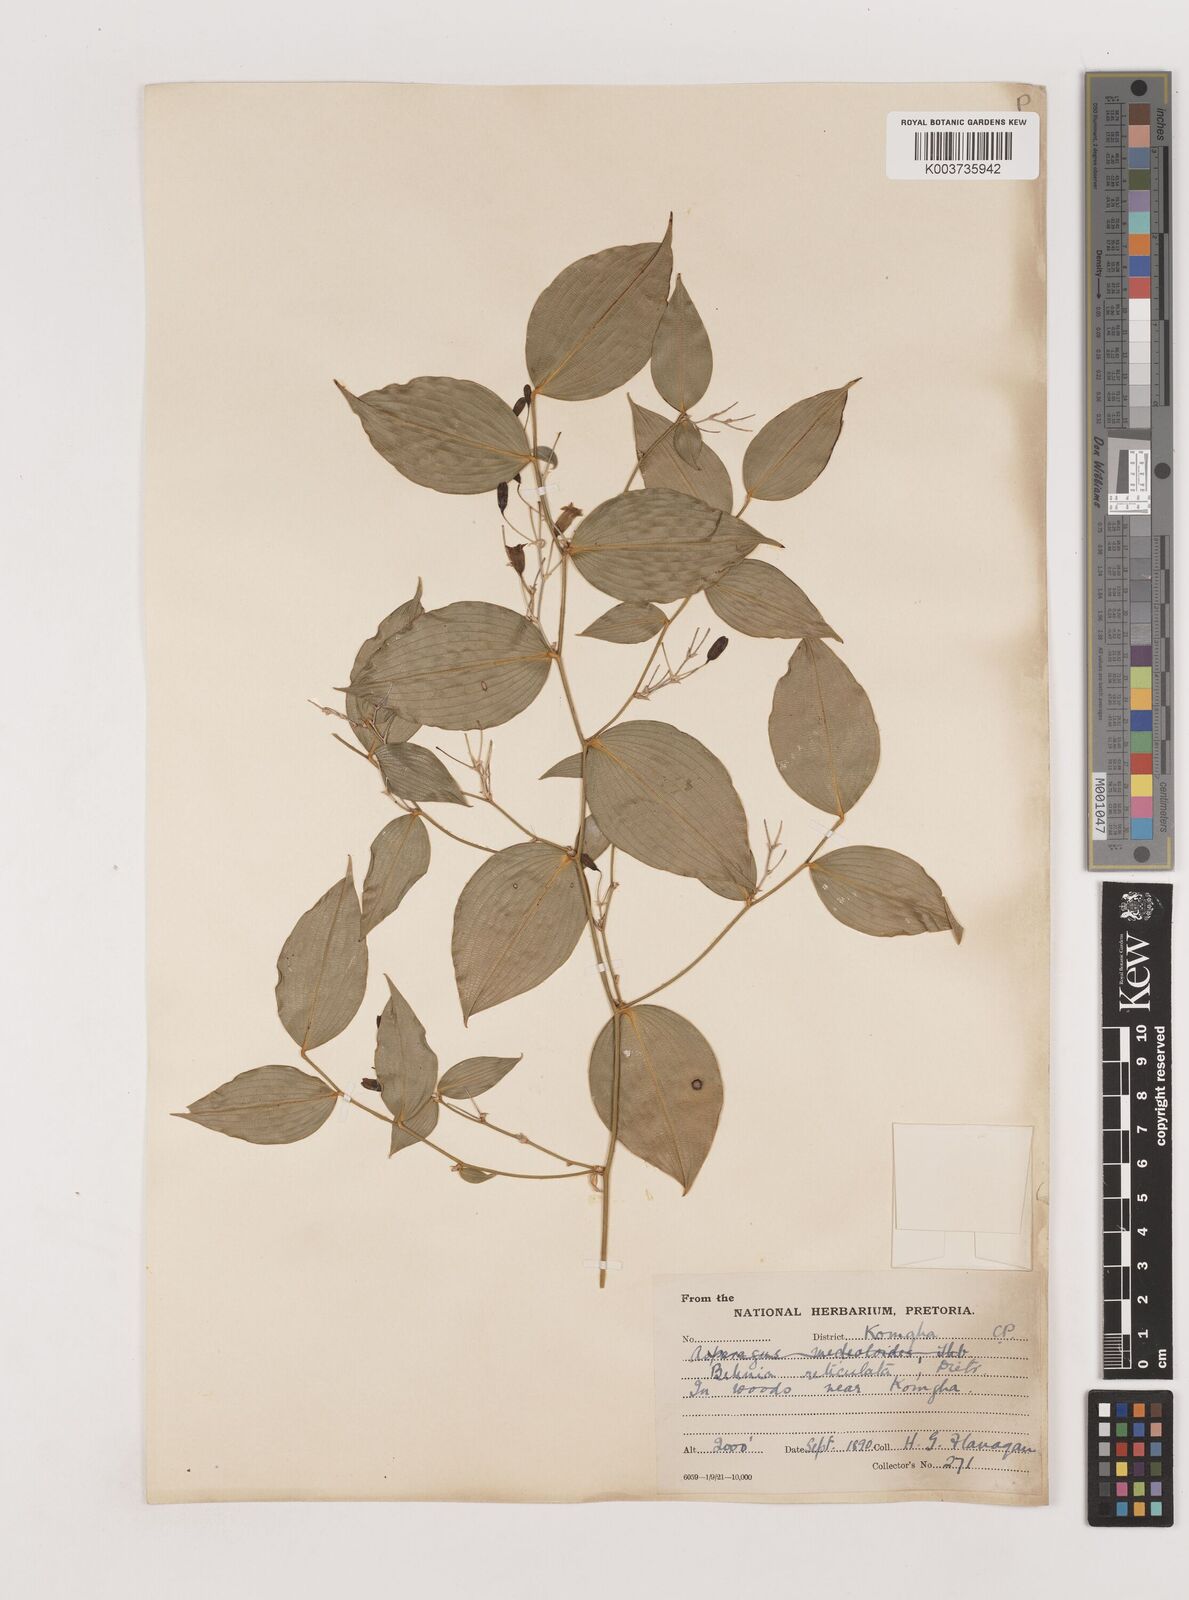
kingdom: Plantae
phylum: Tracheophyta
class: Liliopsida
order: Asparagales
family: Asparagaceae
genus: Behnia
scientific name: Behnia reticulata
